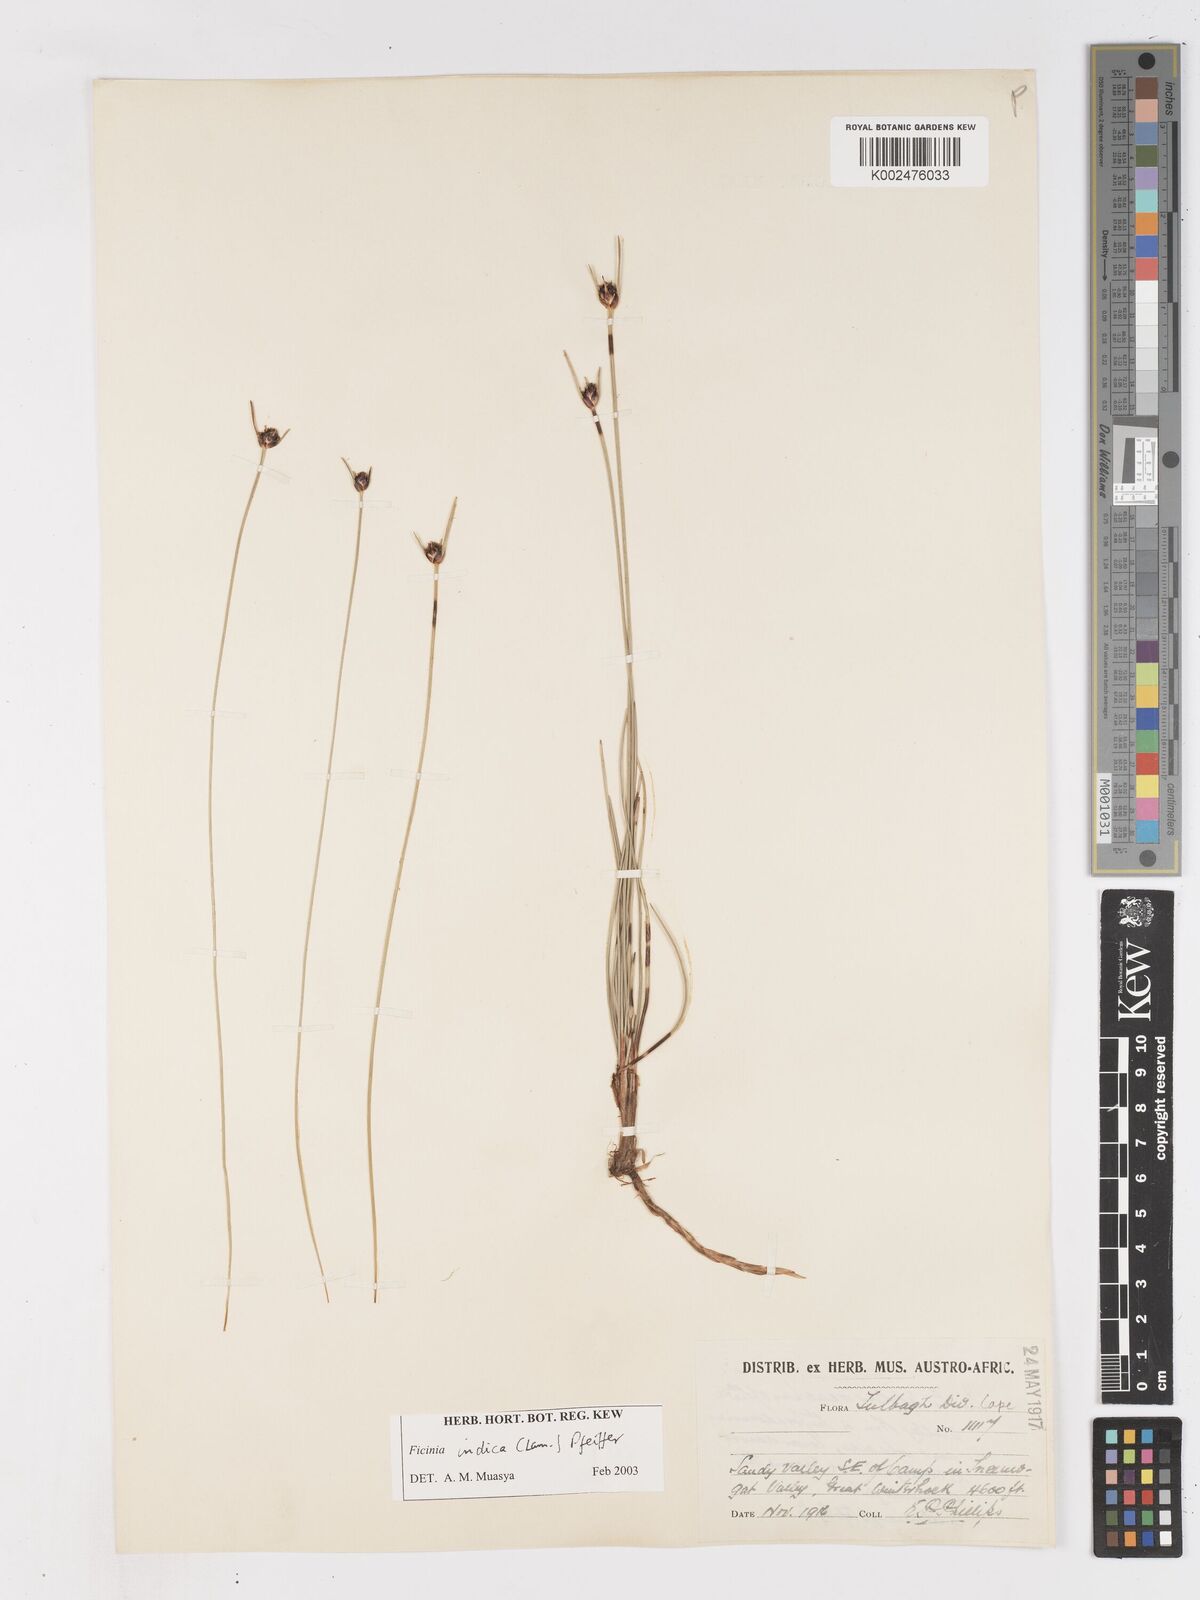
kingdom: Plantae
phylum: Tracheophyta
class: Liliopsida
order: Poales
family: Cyperaceae
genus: Ficinia
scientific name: Ficinia indica
